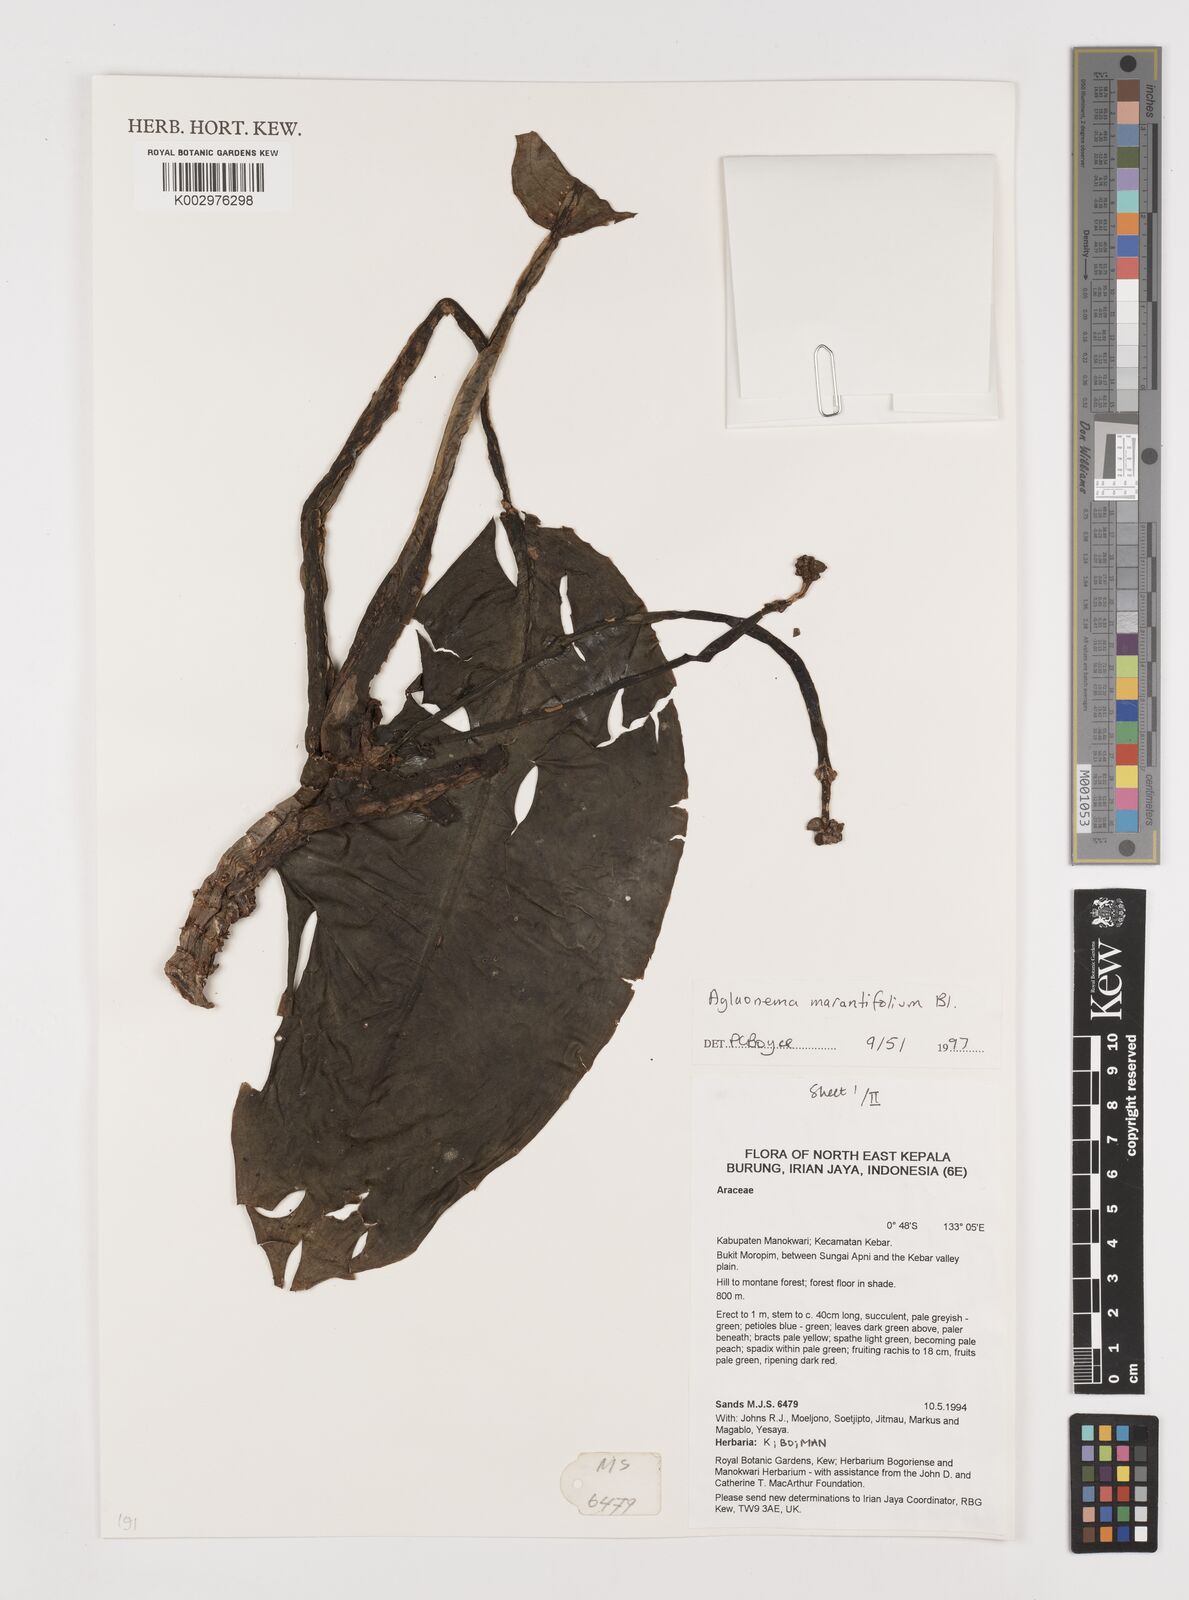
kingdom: Plantae
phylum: Tracheophyta
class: Liliopsida
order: Alismatales
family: Araceae
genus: Aglaonema
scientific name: Aglaonema marantifolium
